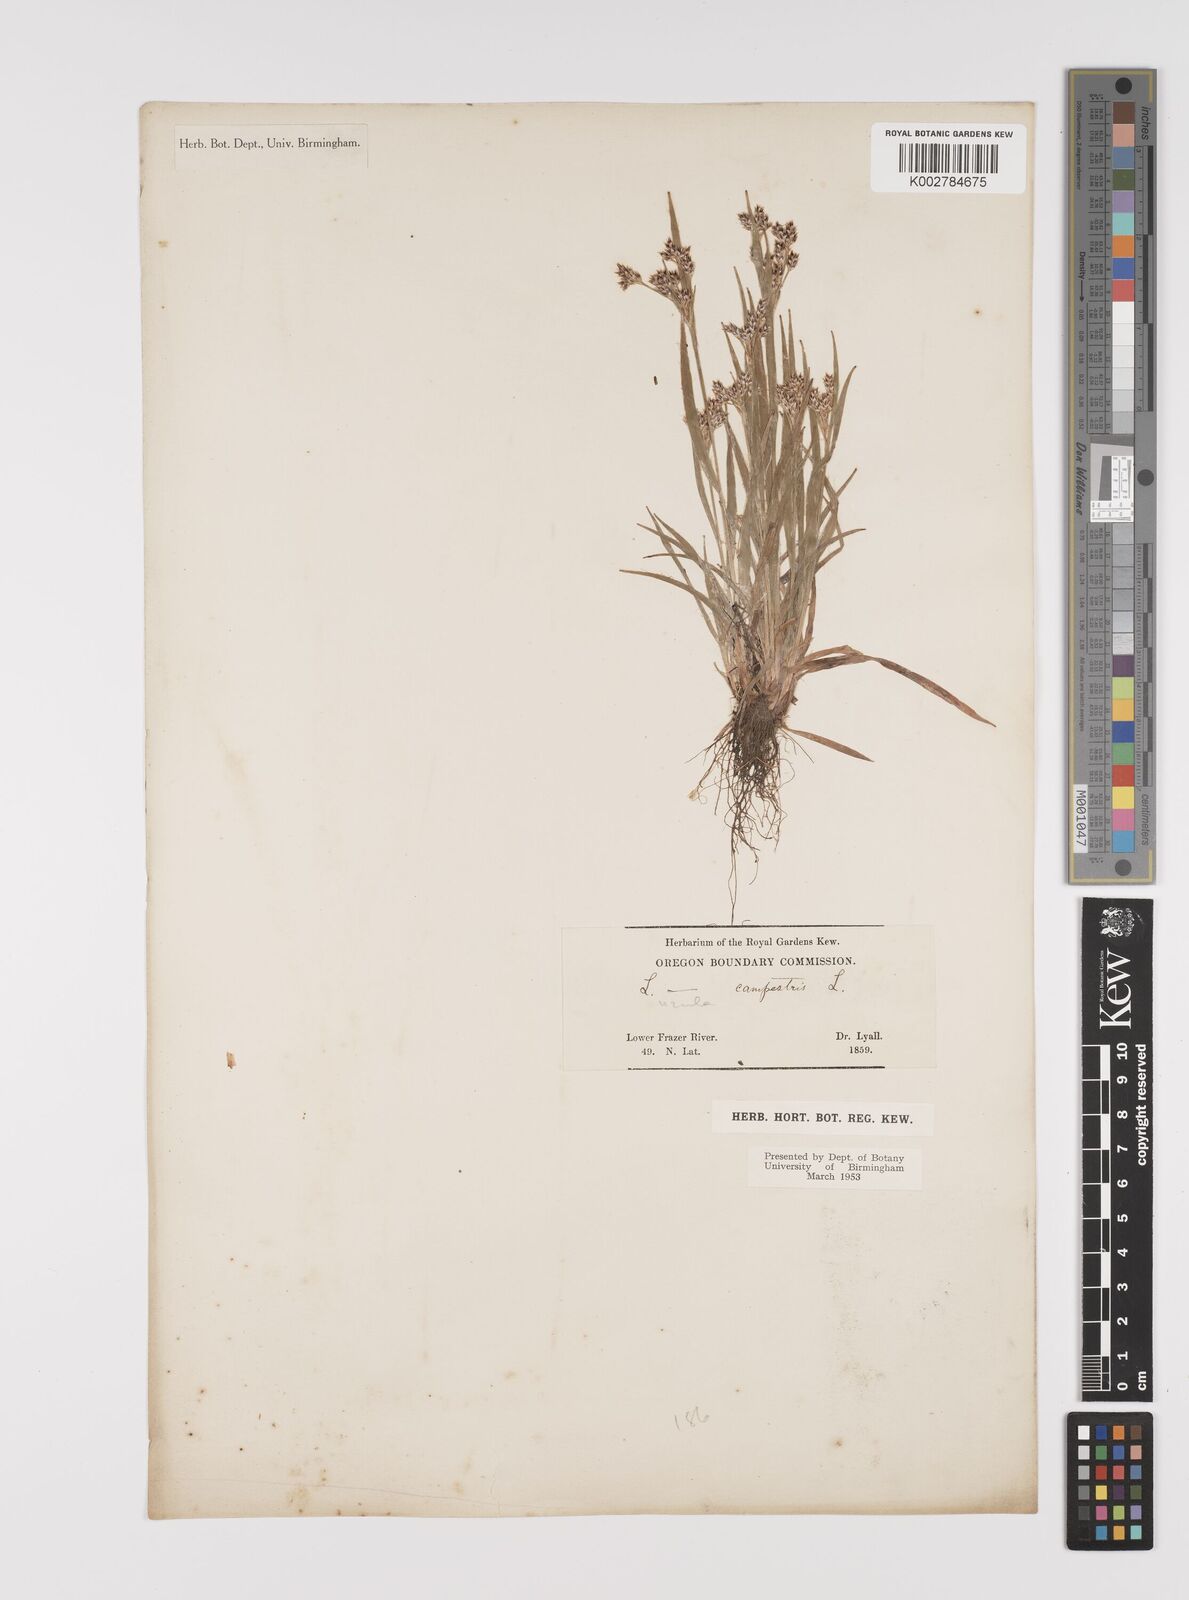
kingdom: Plantae
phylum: Tracheophyta
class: Liliopsida
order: Poales
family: Juncaceae
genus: Luzula
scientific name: Luzula campestris
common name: Field wood-rush
